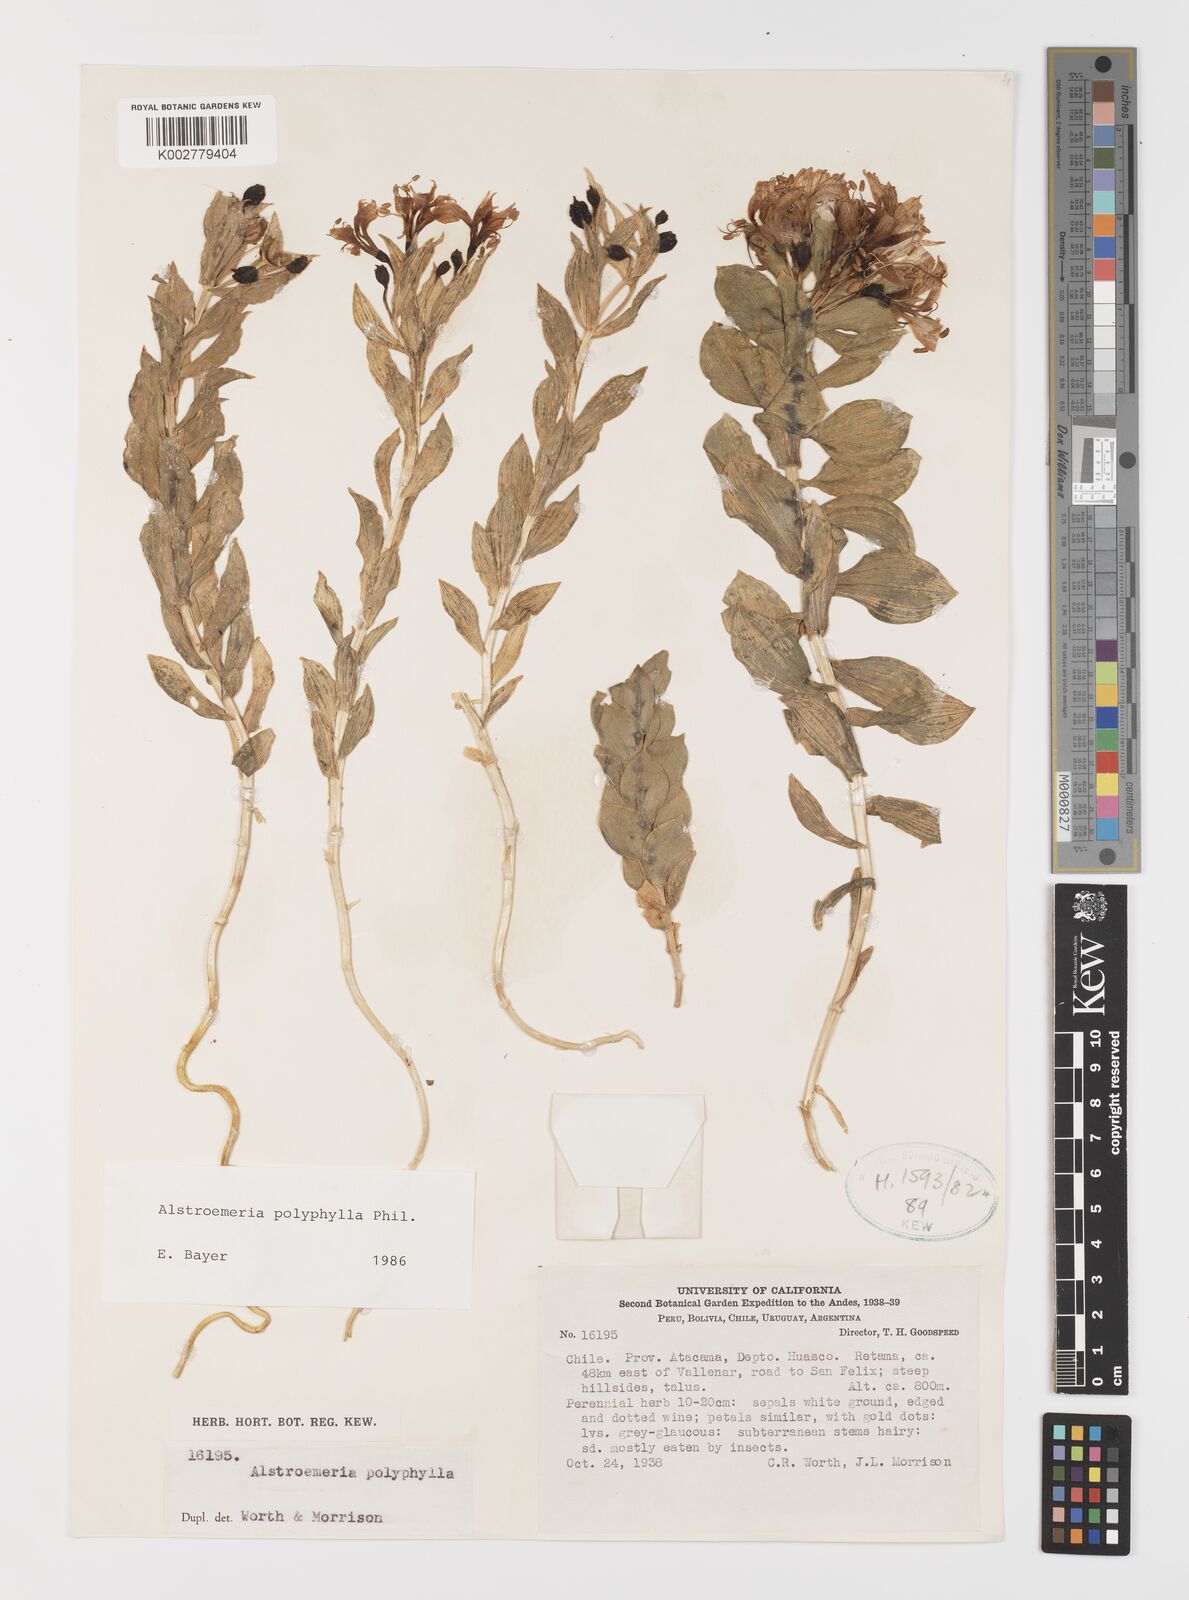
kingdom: Plantae
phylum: Tracheophyta
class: Liliopsida
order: Liliales
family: Alstroemeriaceae
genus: Alstroemeria
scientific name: Alstroemeria polyphylla
